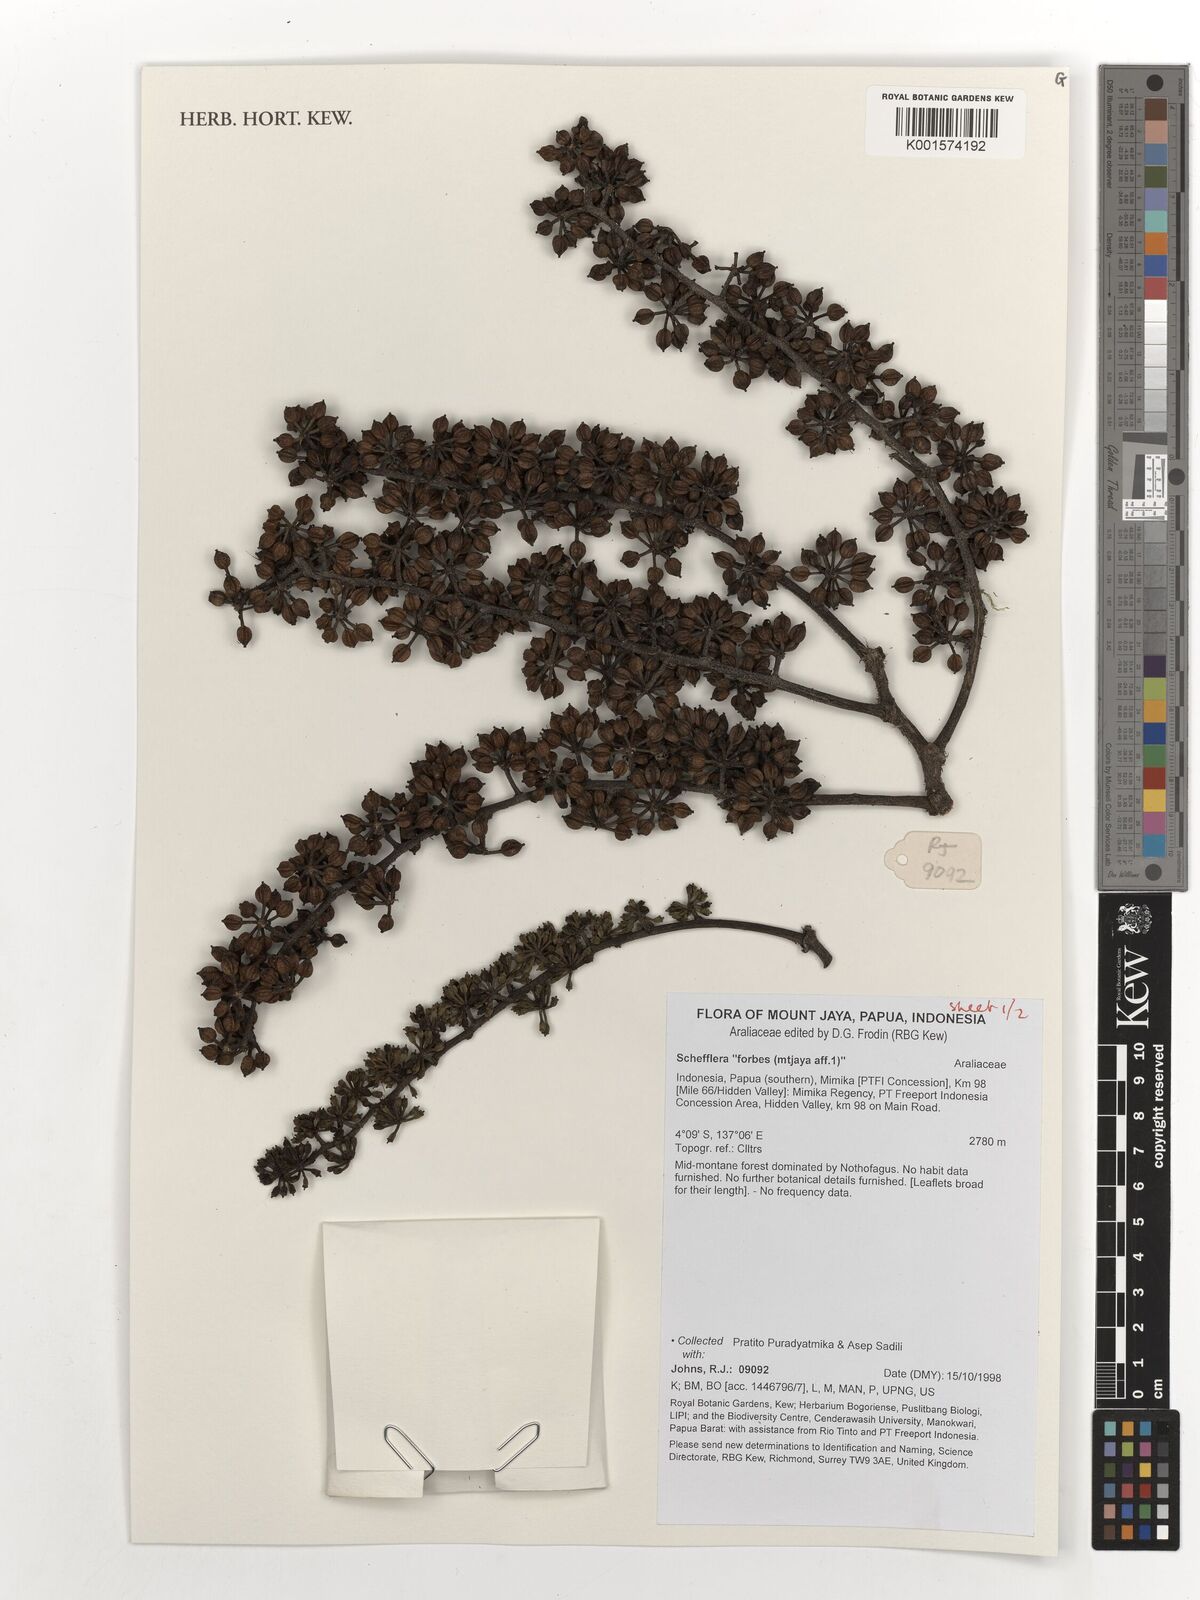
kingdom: Plantae
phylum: Tracheophyta
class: Magnoliopsida
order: Apiales
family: Araliaceae
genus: Schefflera
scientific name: Schefflera
